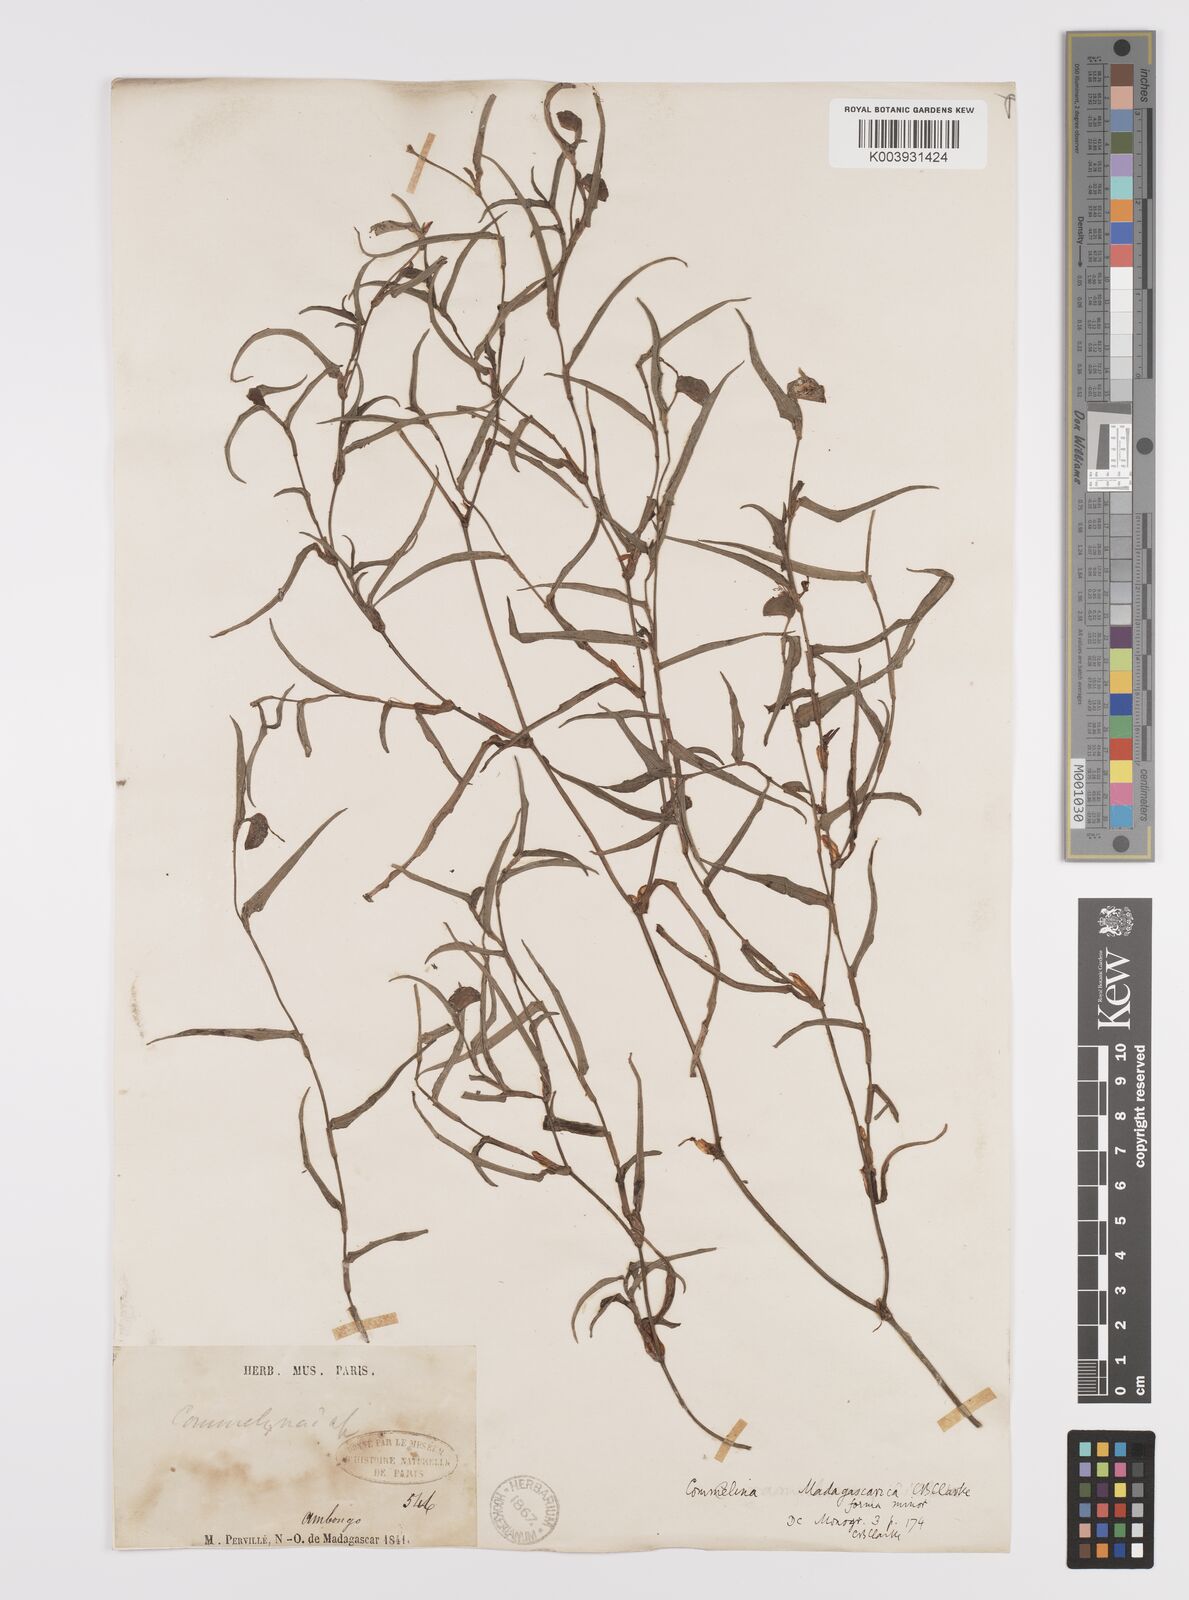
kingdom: Plantae
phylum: Tracheophyta
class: Liliopsida
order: Commelinales
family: Commelinaceae
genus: Commelina
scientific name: Commelina madagascarica
